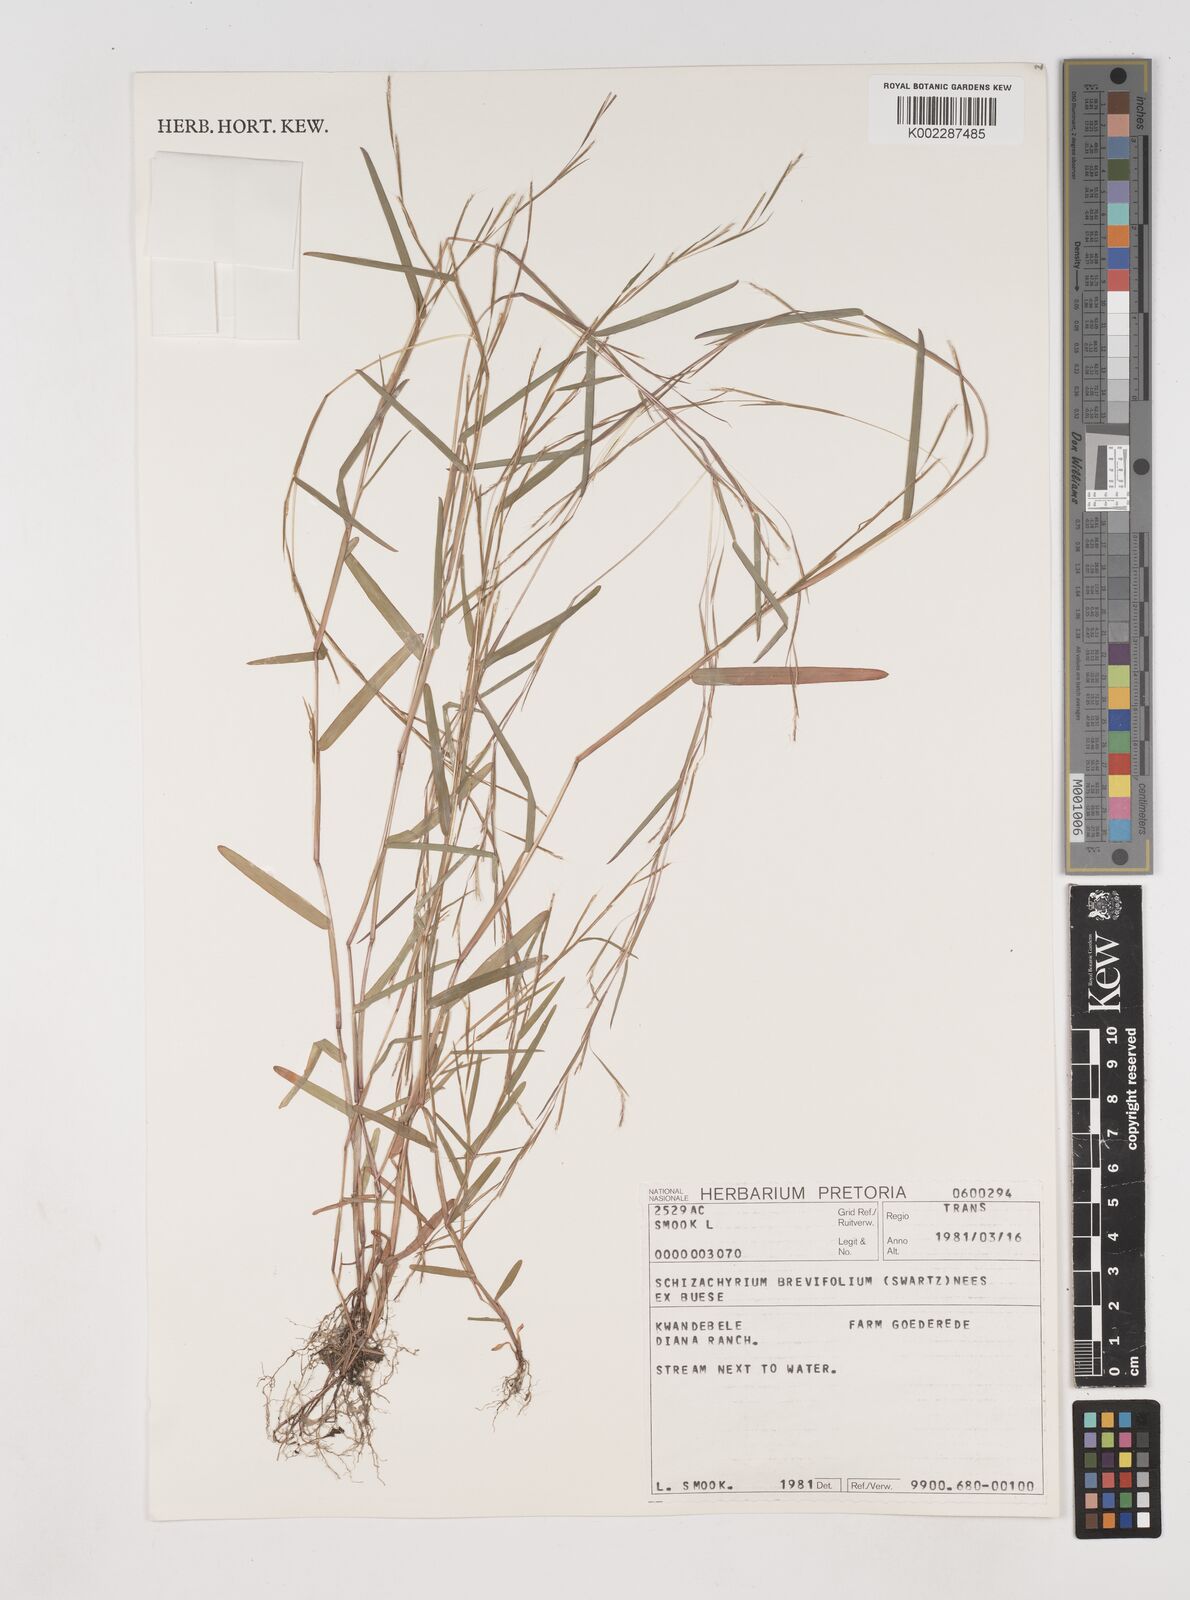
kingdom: Plantae
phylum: Tracheophyta
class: Liliopsida
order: Poales
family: Poaceae
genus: Schizachyrium
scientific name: Schizachyrium brevifolium
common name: Serillo dulce
